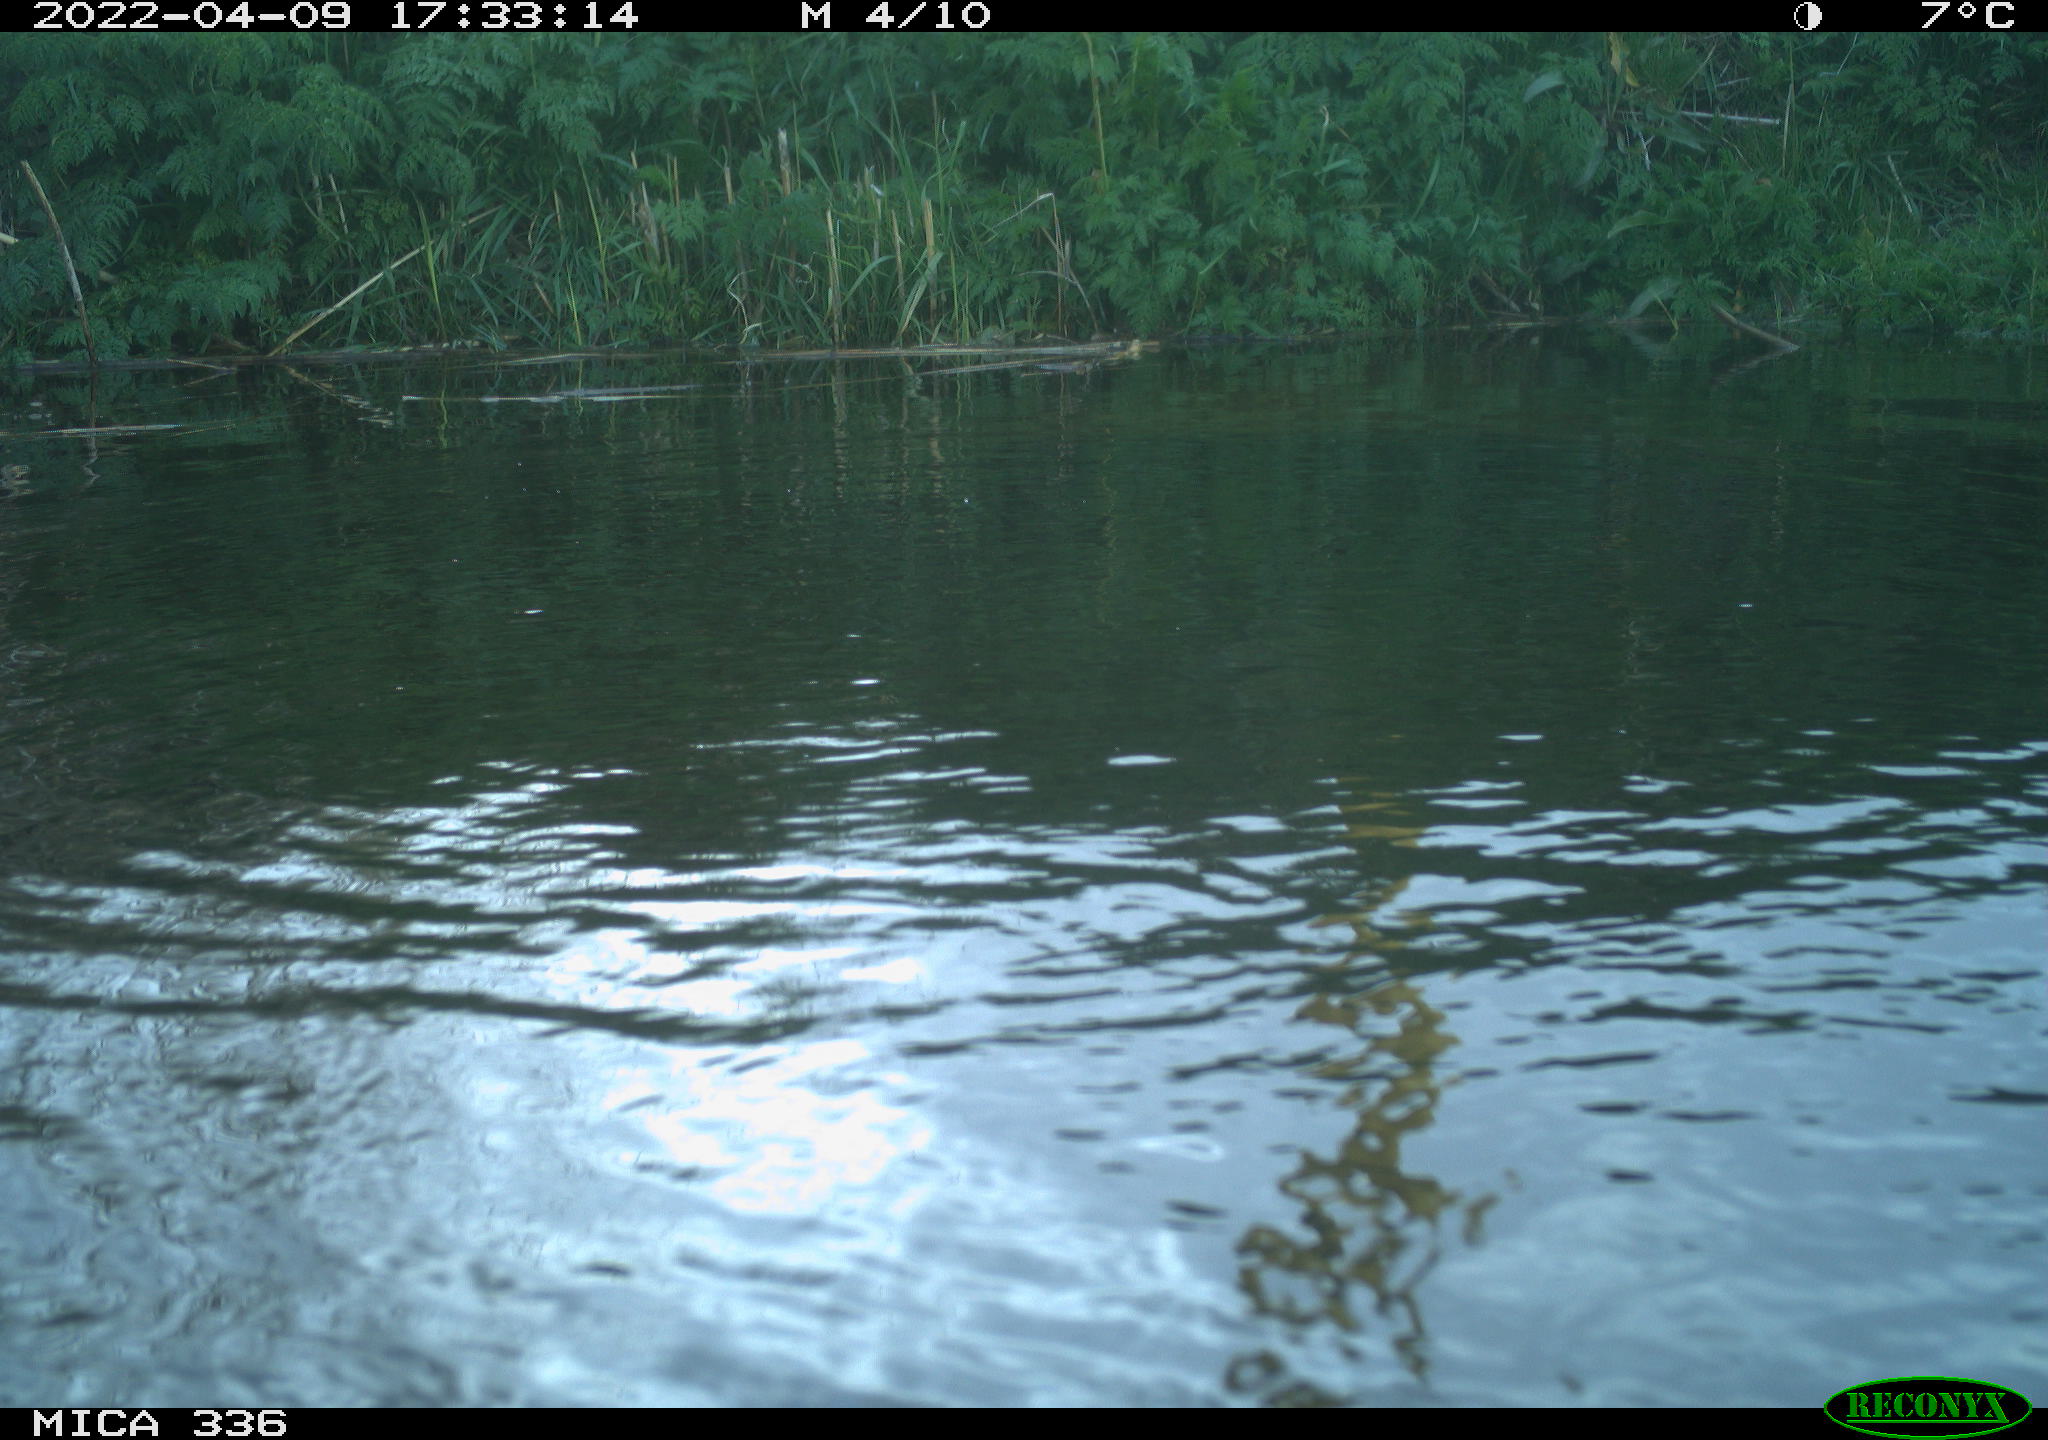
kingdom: Animalia
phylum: Chordata
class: Aves
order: Podicipediformes
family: Podicipedidae
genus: Podiceps
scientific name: Podiceps cristatus
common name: Great crested grebe
